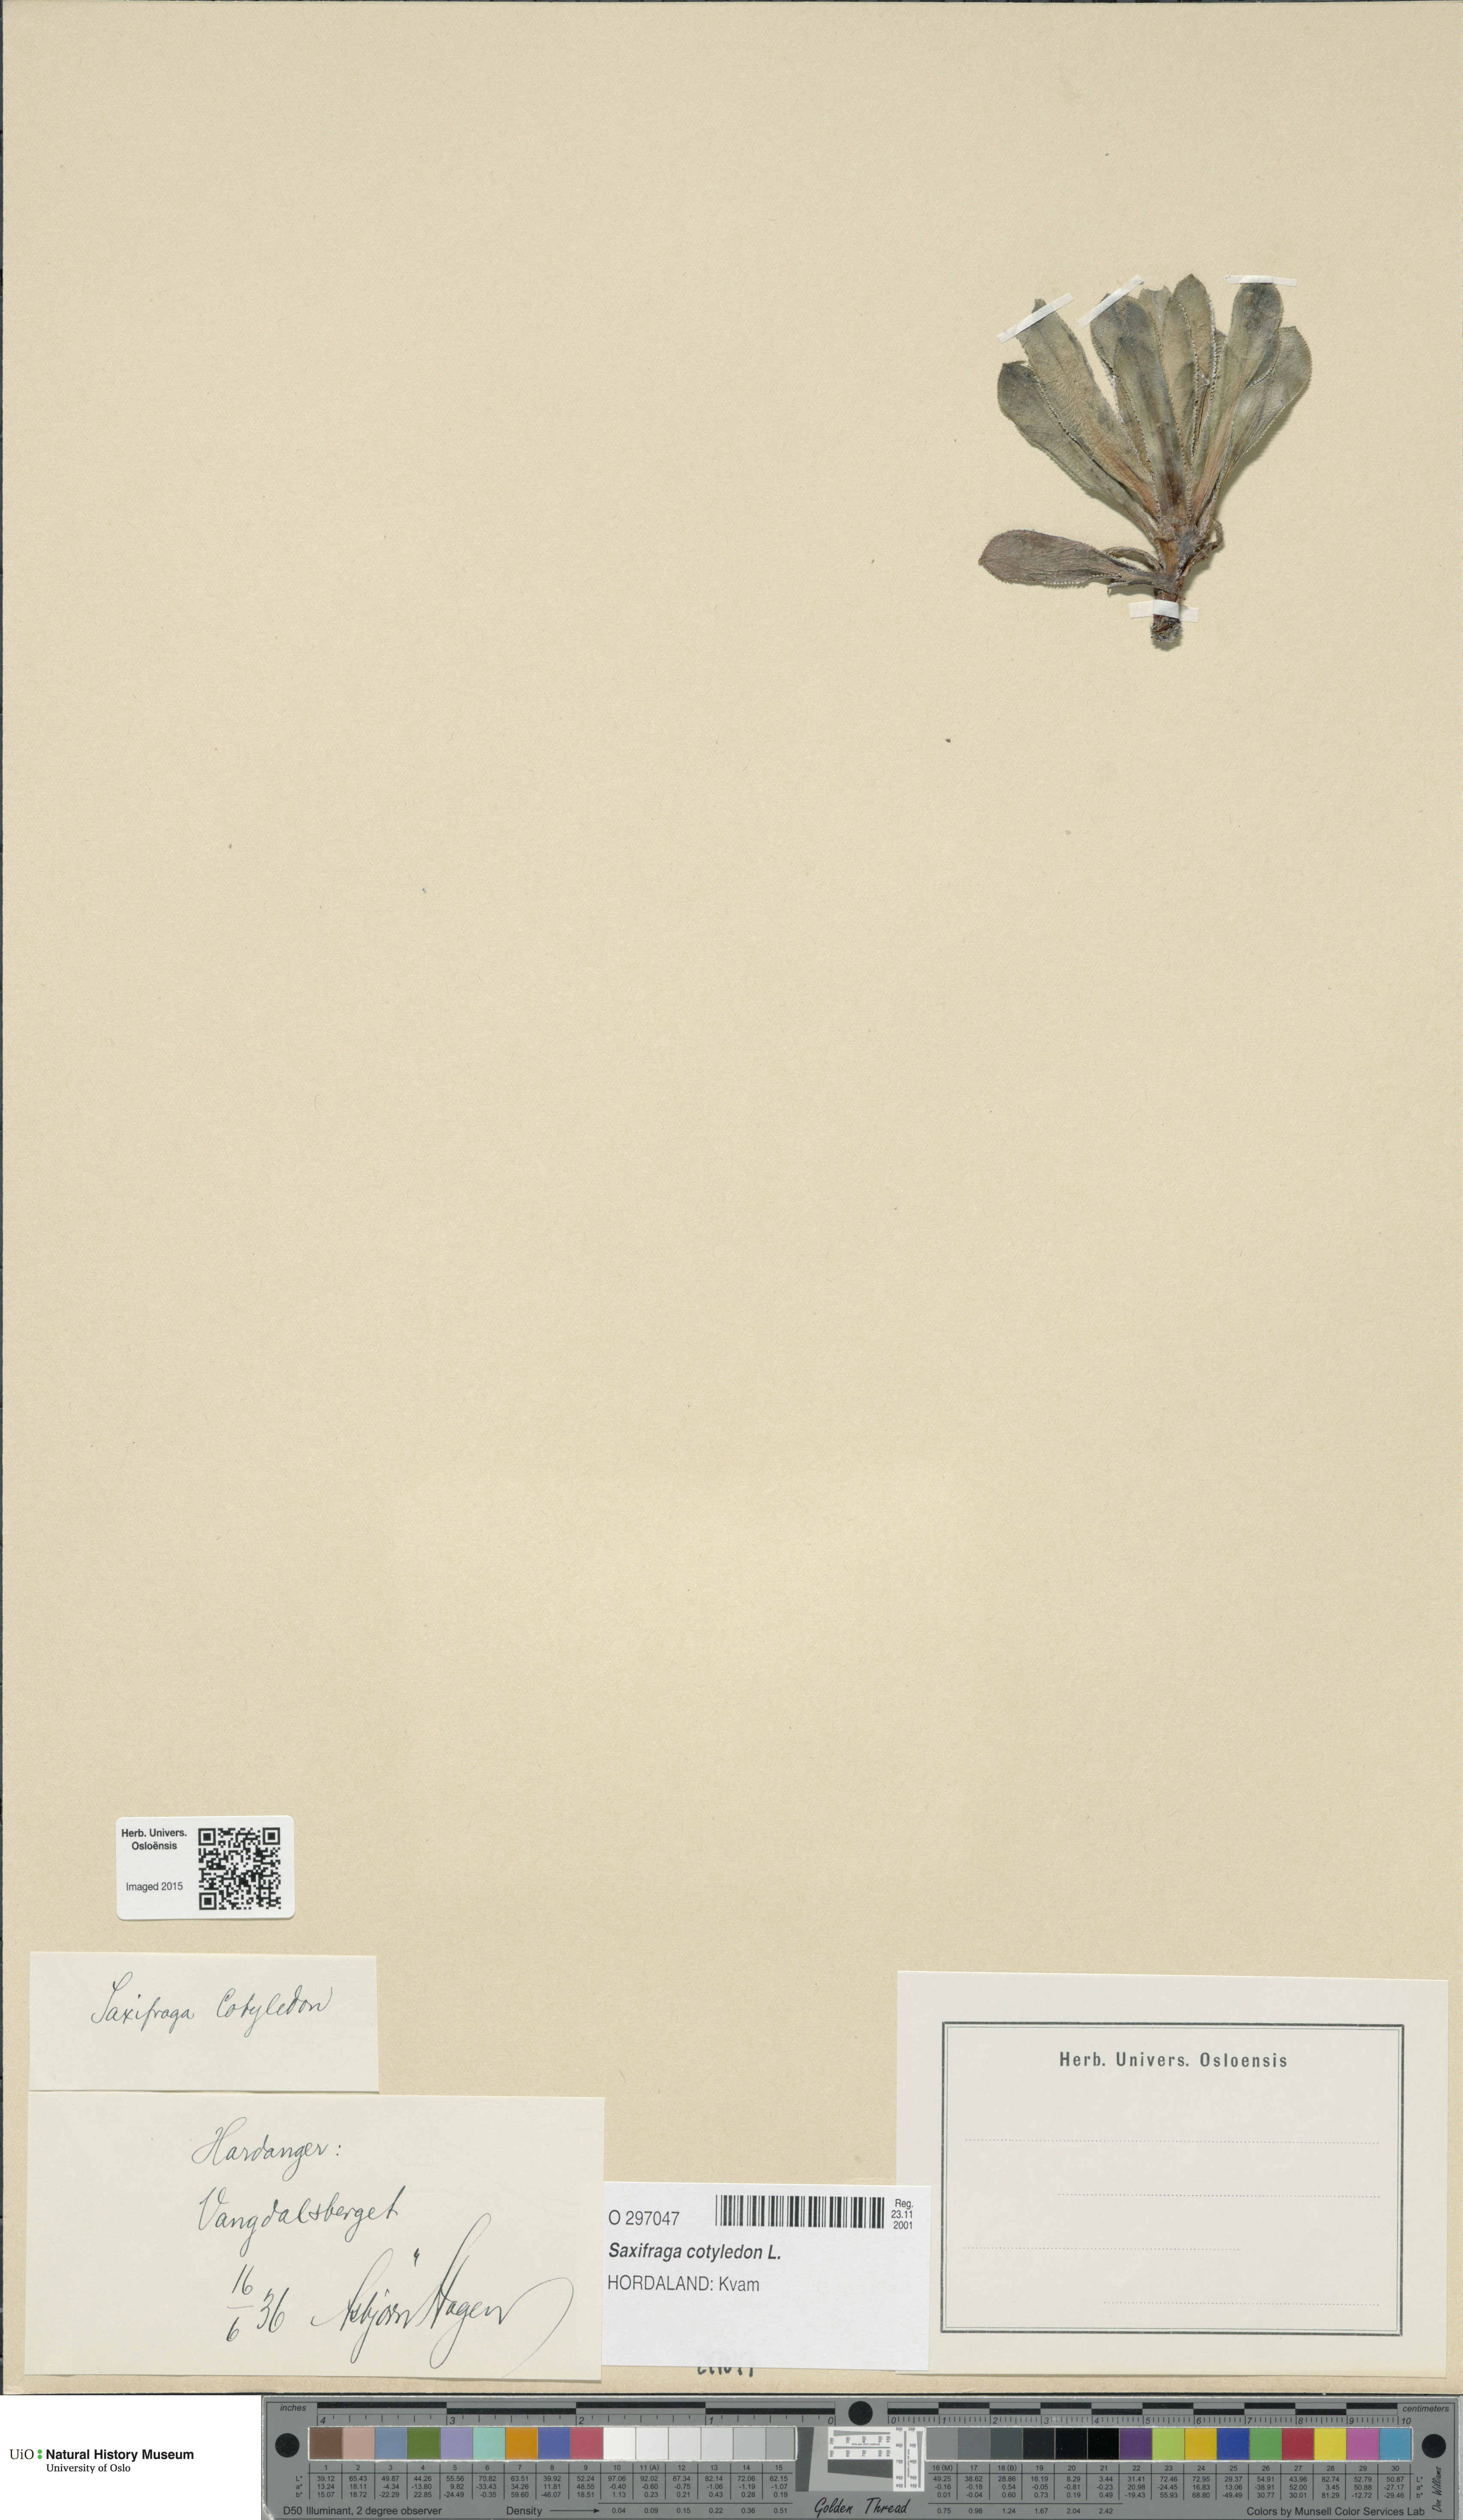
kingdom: Plantae
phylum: Tracheophyta
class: Magnoliopsida
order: Saxifragales
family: Saxifragaceae
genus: Saxifraga
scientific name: Saxifraga cotyledon
